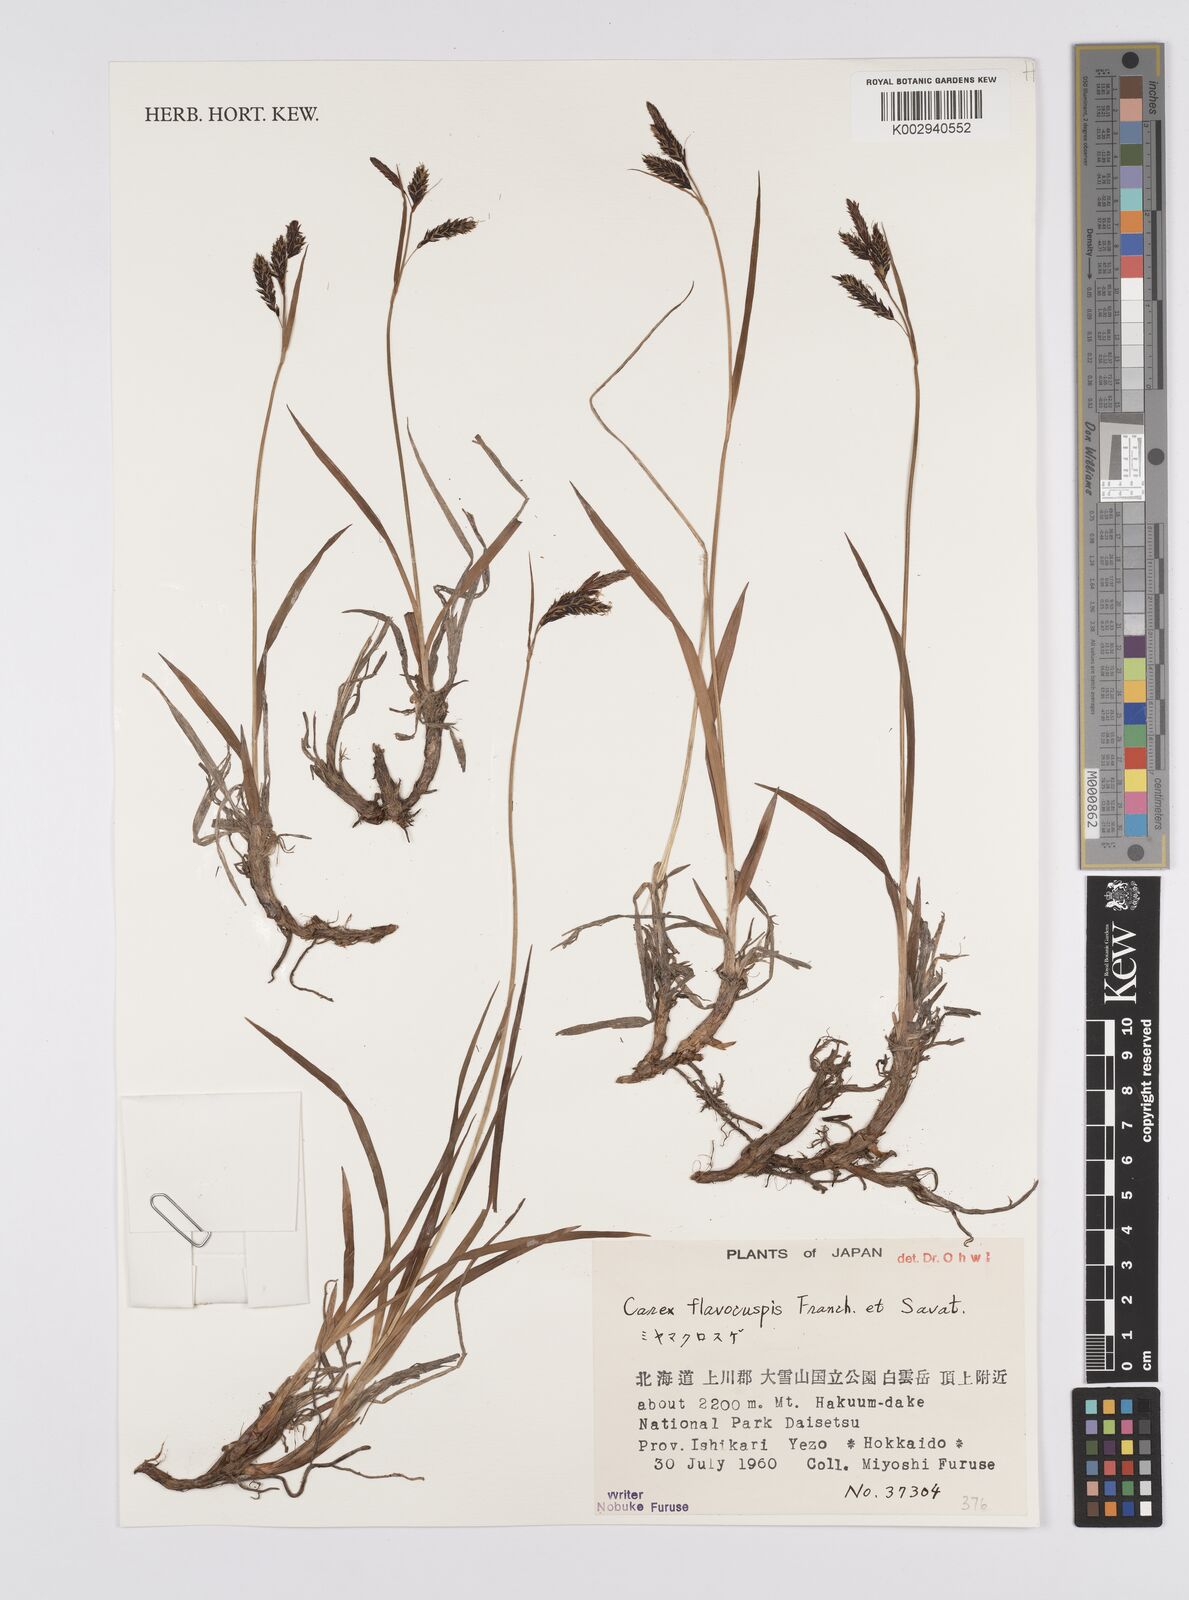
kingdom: Plantae
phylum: Tracheophyta
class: Liliopsida
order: Poales
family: Cyperaceae
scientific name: Cyperaceae
